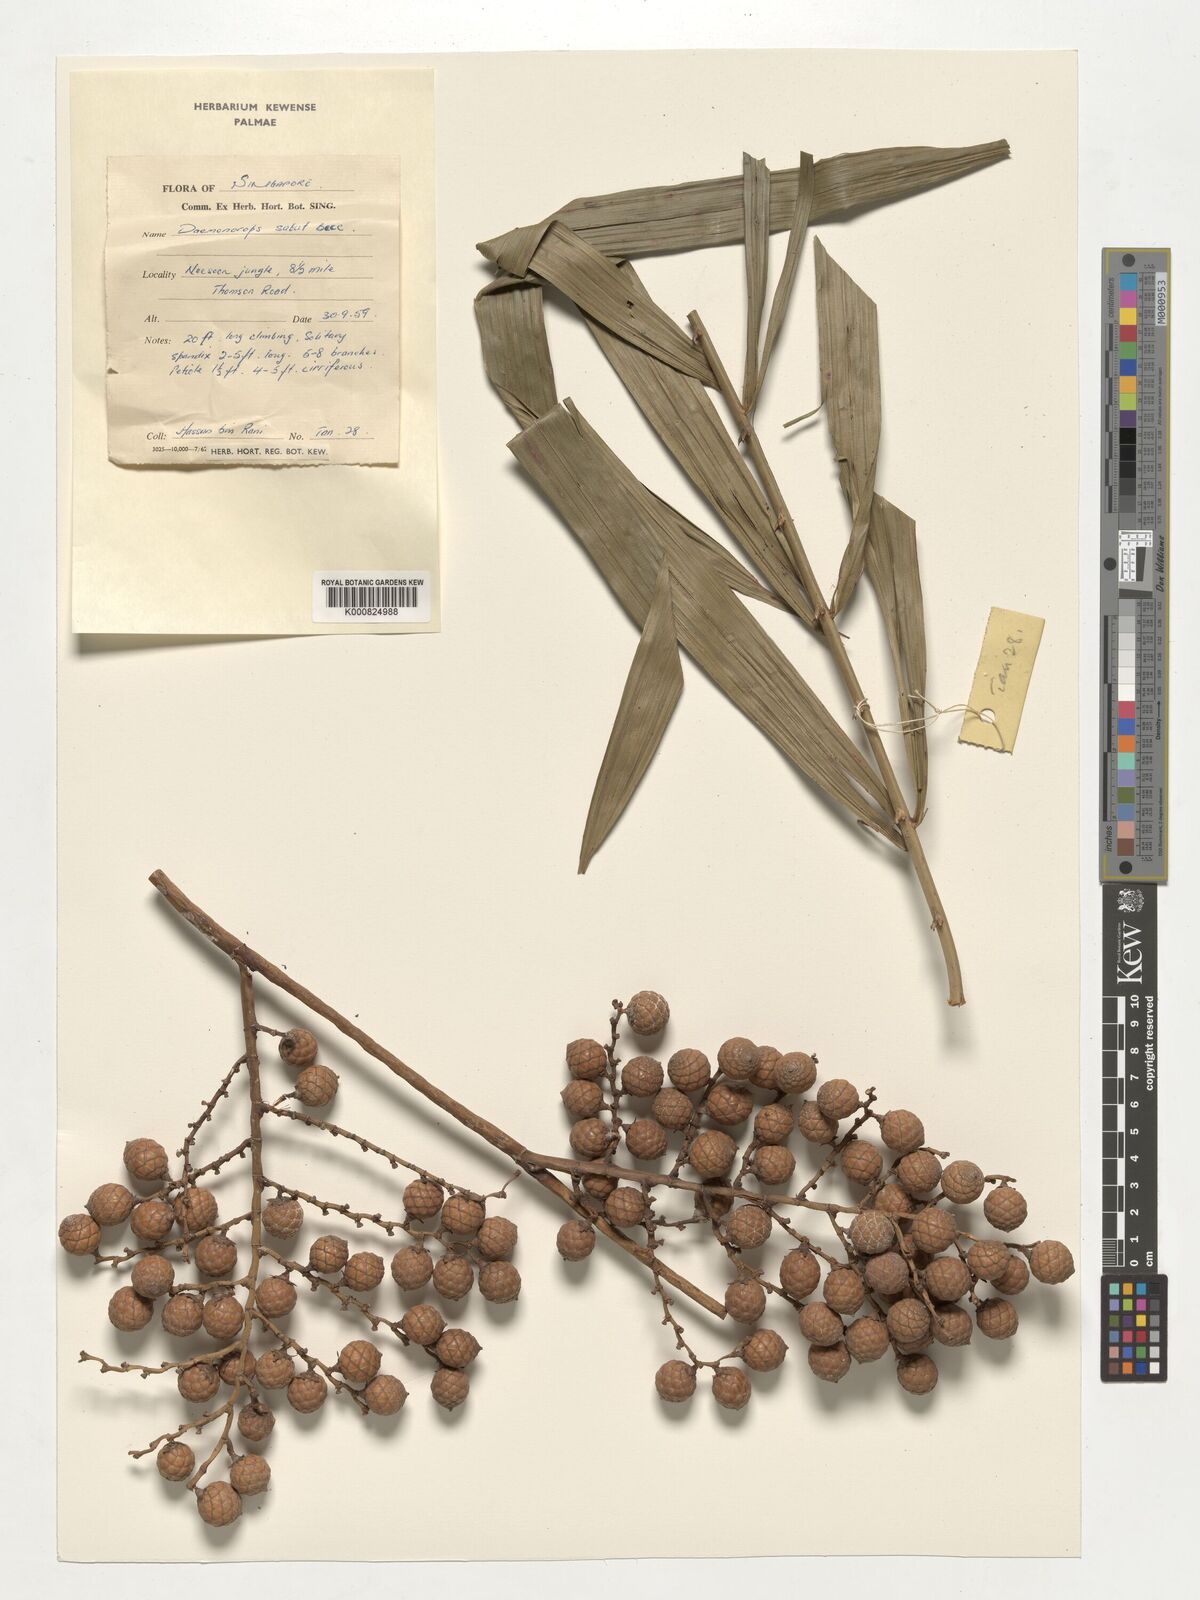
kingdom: Plantae
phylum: Tracheophyta
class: Liliopsida
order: Arecales
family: Arecaceae
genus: Calamus
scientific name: Calamus crinitus
